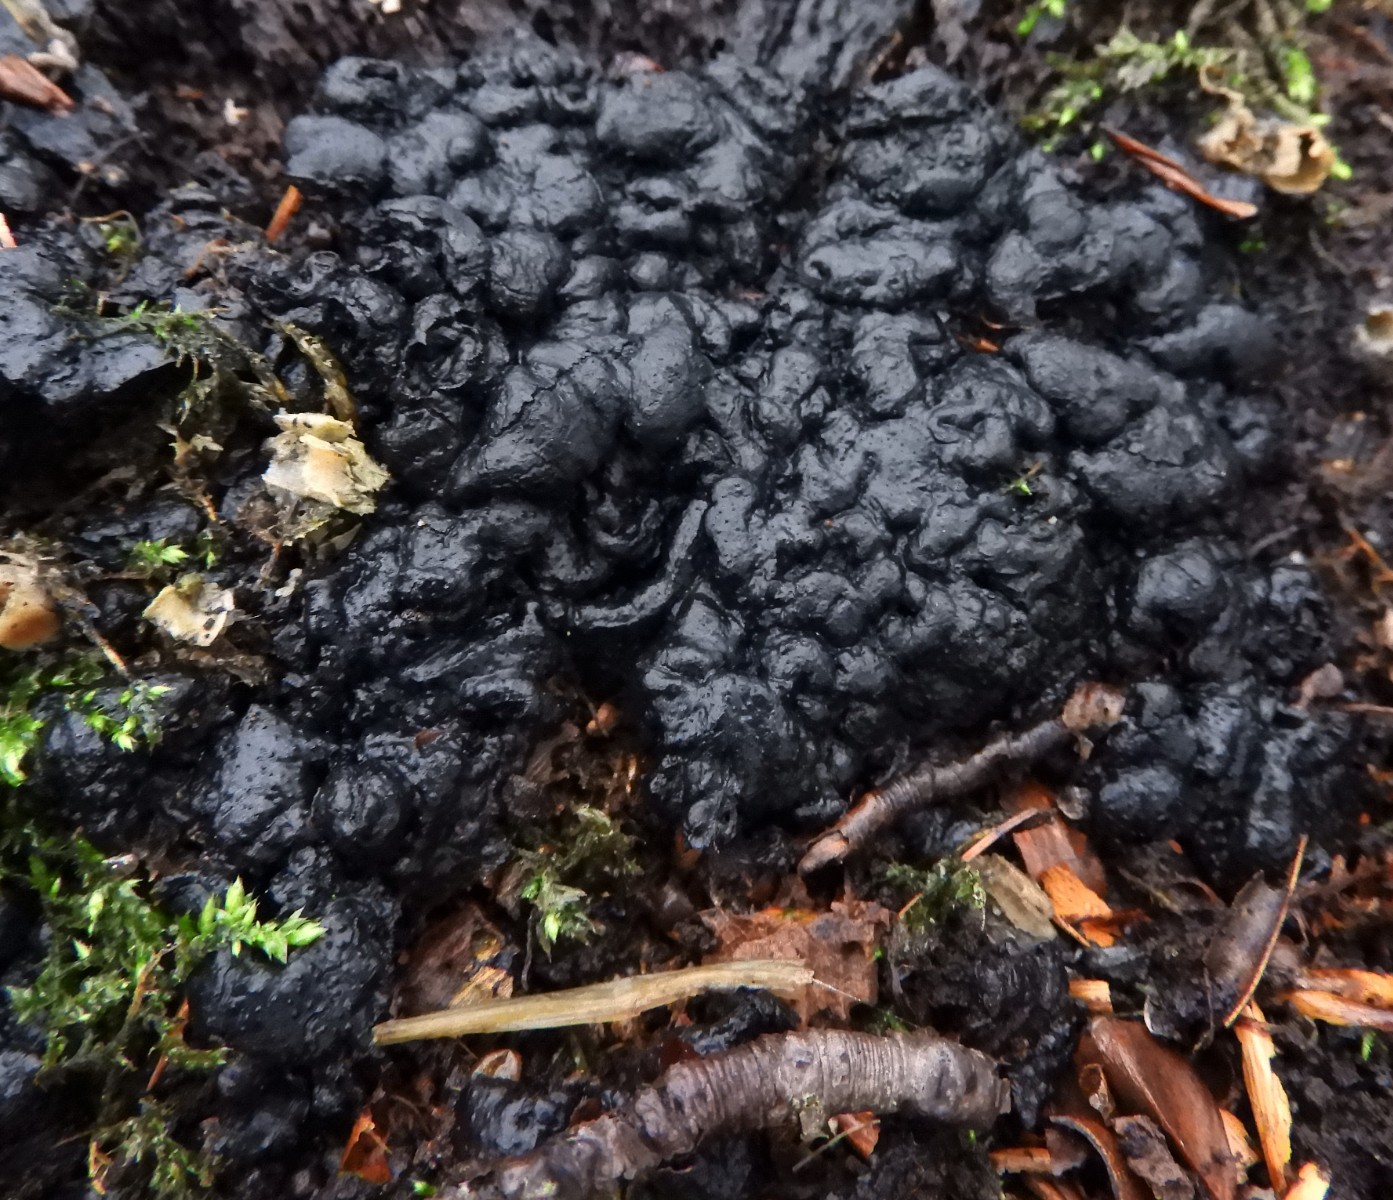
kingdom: Fungi
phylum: Ascomycota
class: Sordariomycetes
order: Xylariales
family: Xylariaceae
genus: Kretzschmaria
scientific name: Kretzschmaria deusta
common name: stor kulsvamp
